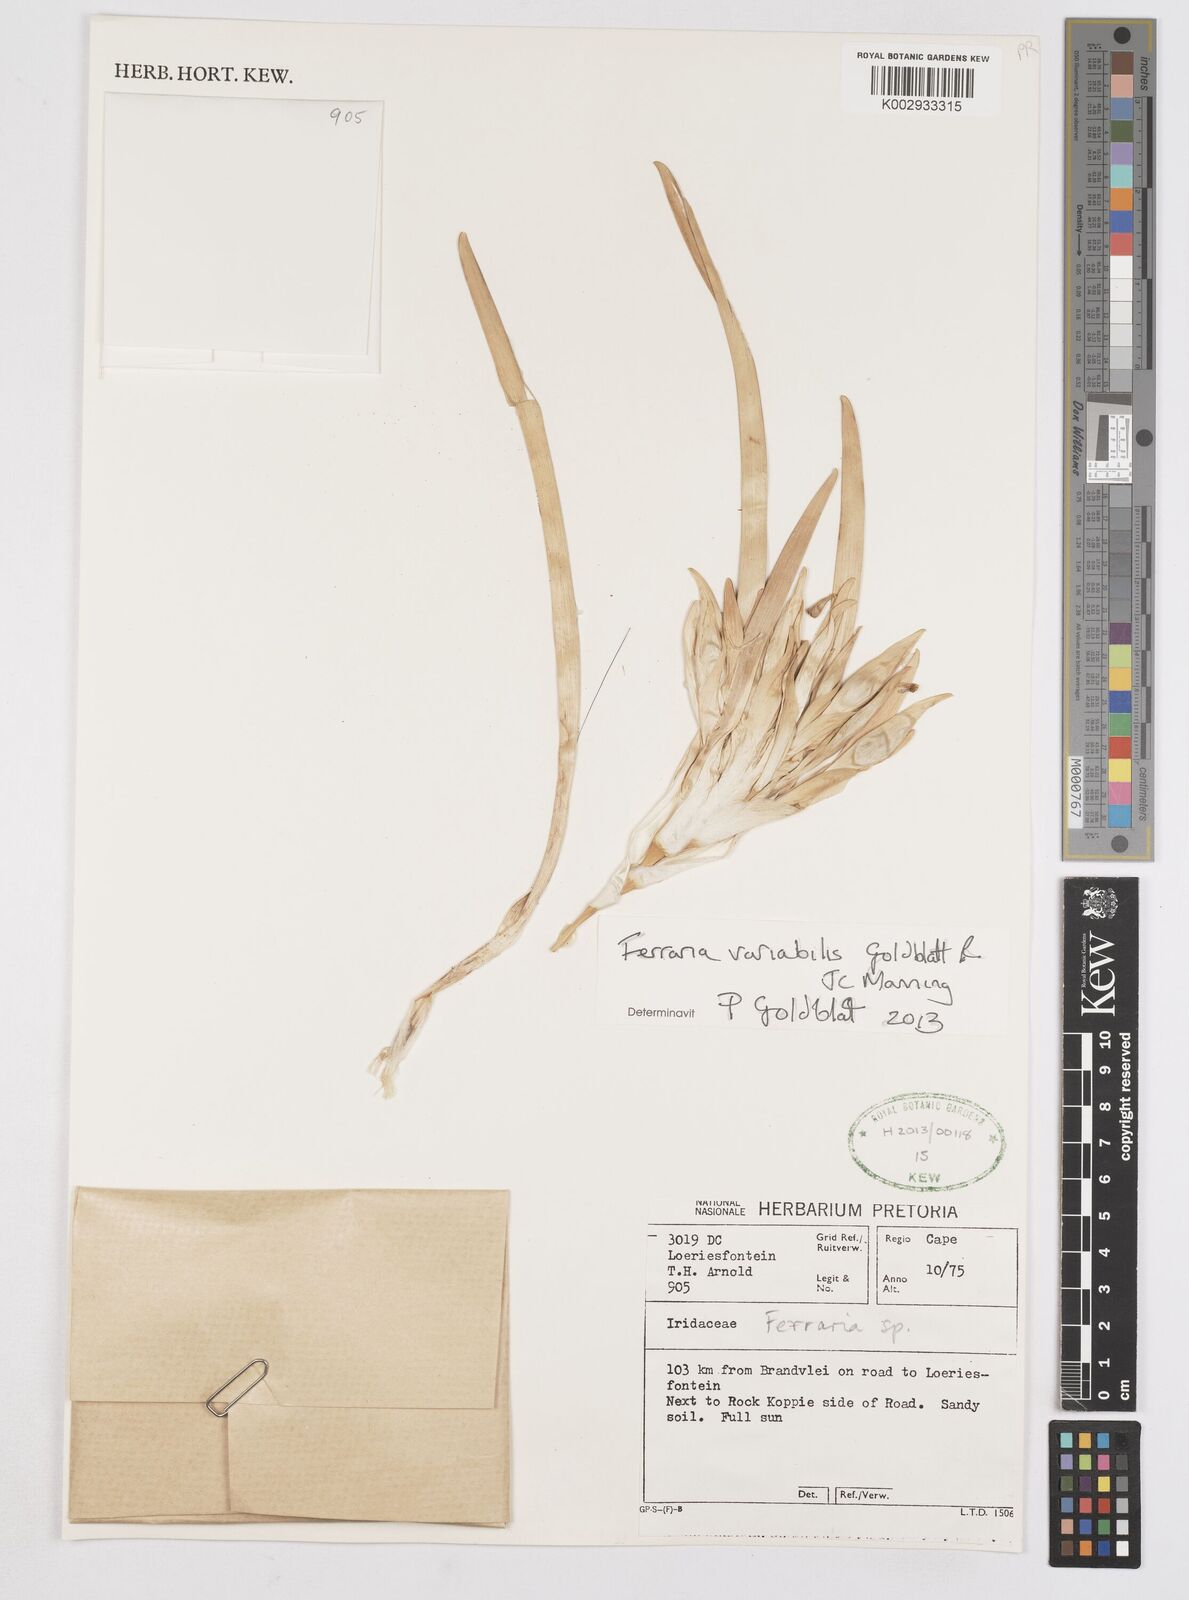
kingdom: Plantae
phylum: Tracheophyta
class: Liliopsida
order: Asparagales
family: Iridaceae
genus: Ferraria
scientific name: Ferraria variabilis
